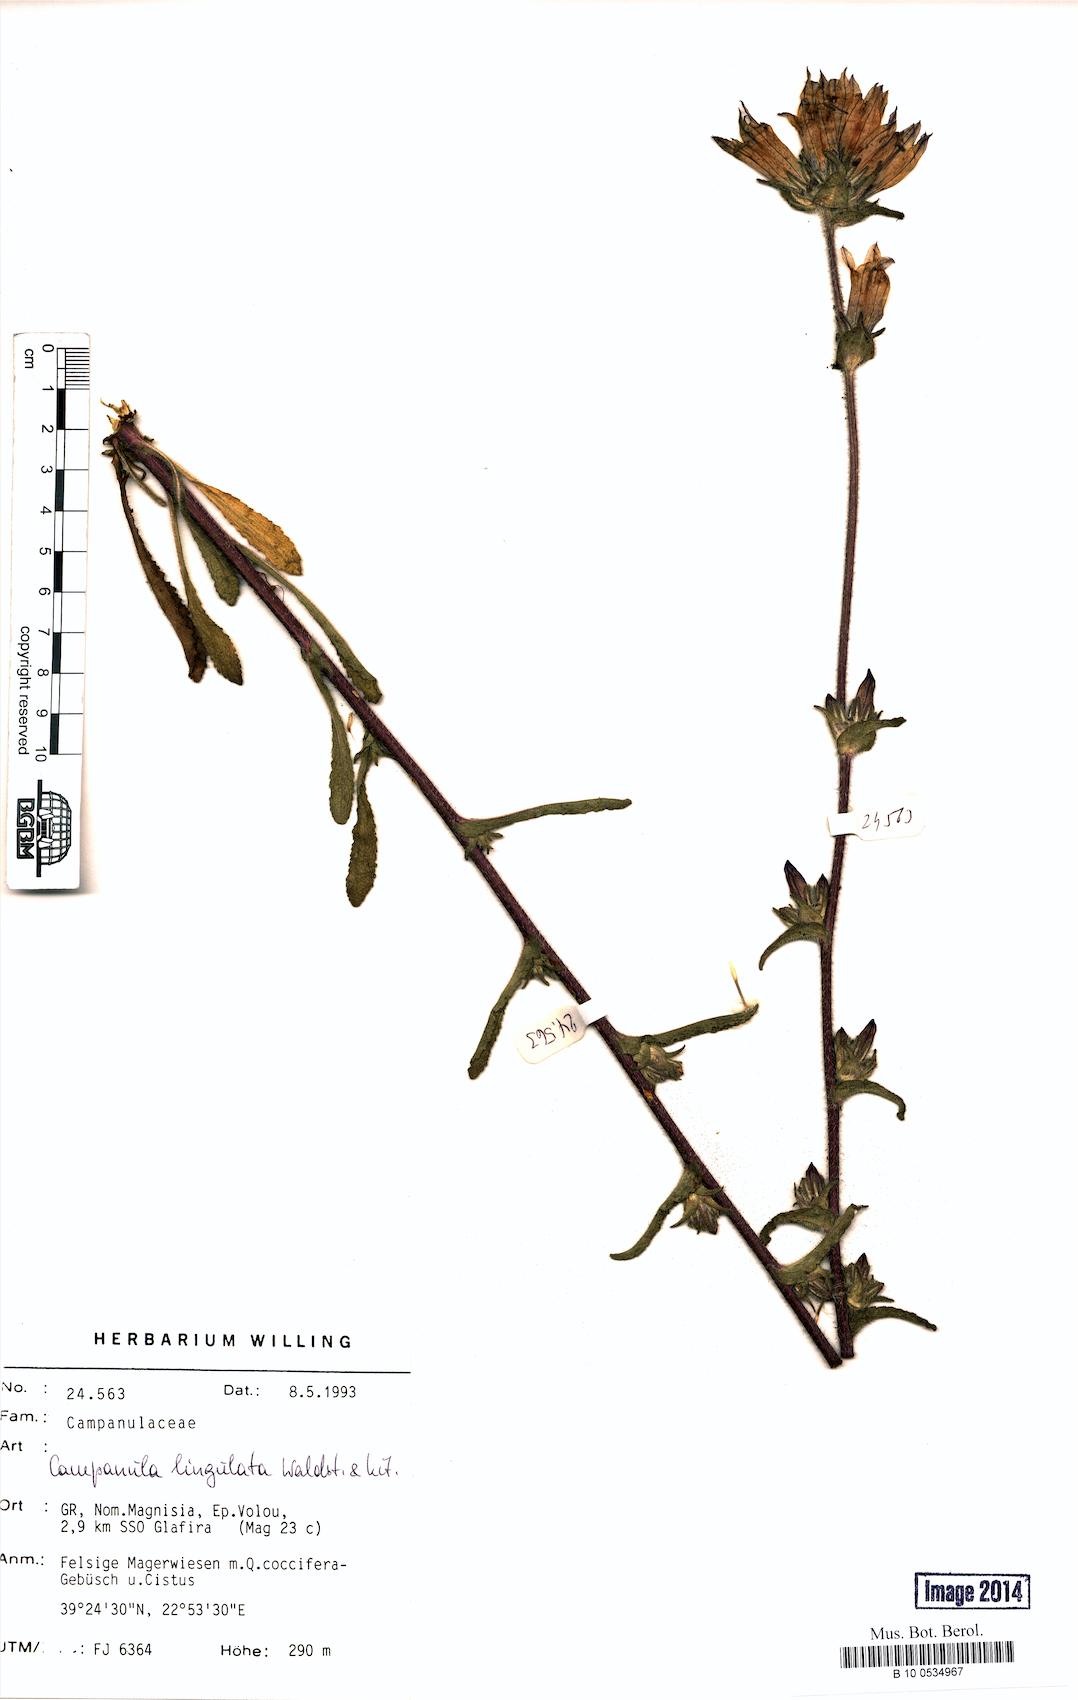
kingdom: Plantae
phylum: Tracheophyta
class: Magnoliopsida
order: Asterales
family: Campanulaceae
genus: Campanula
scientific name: Campanula lingulata
